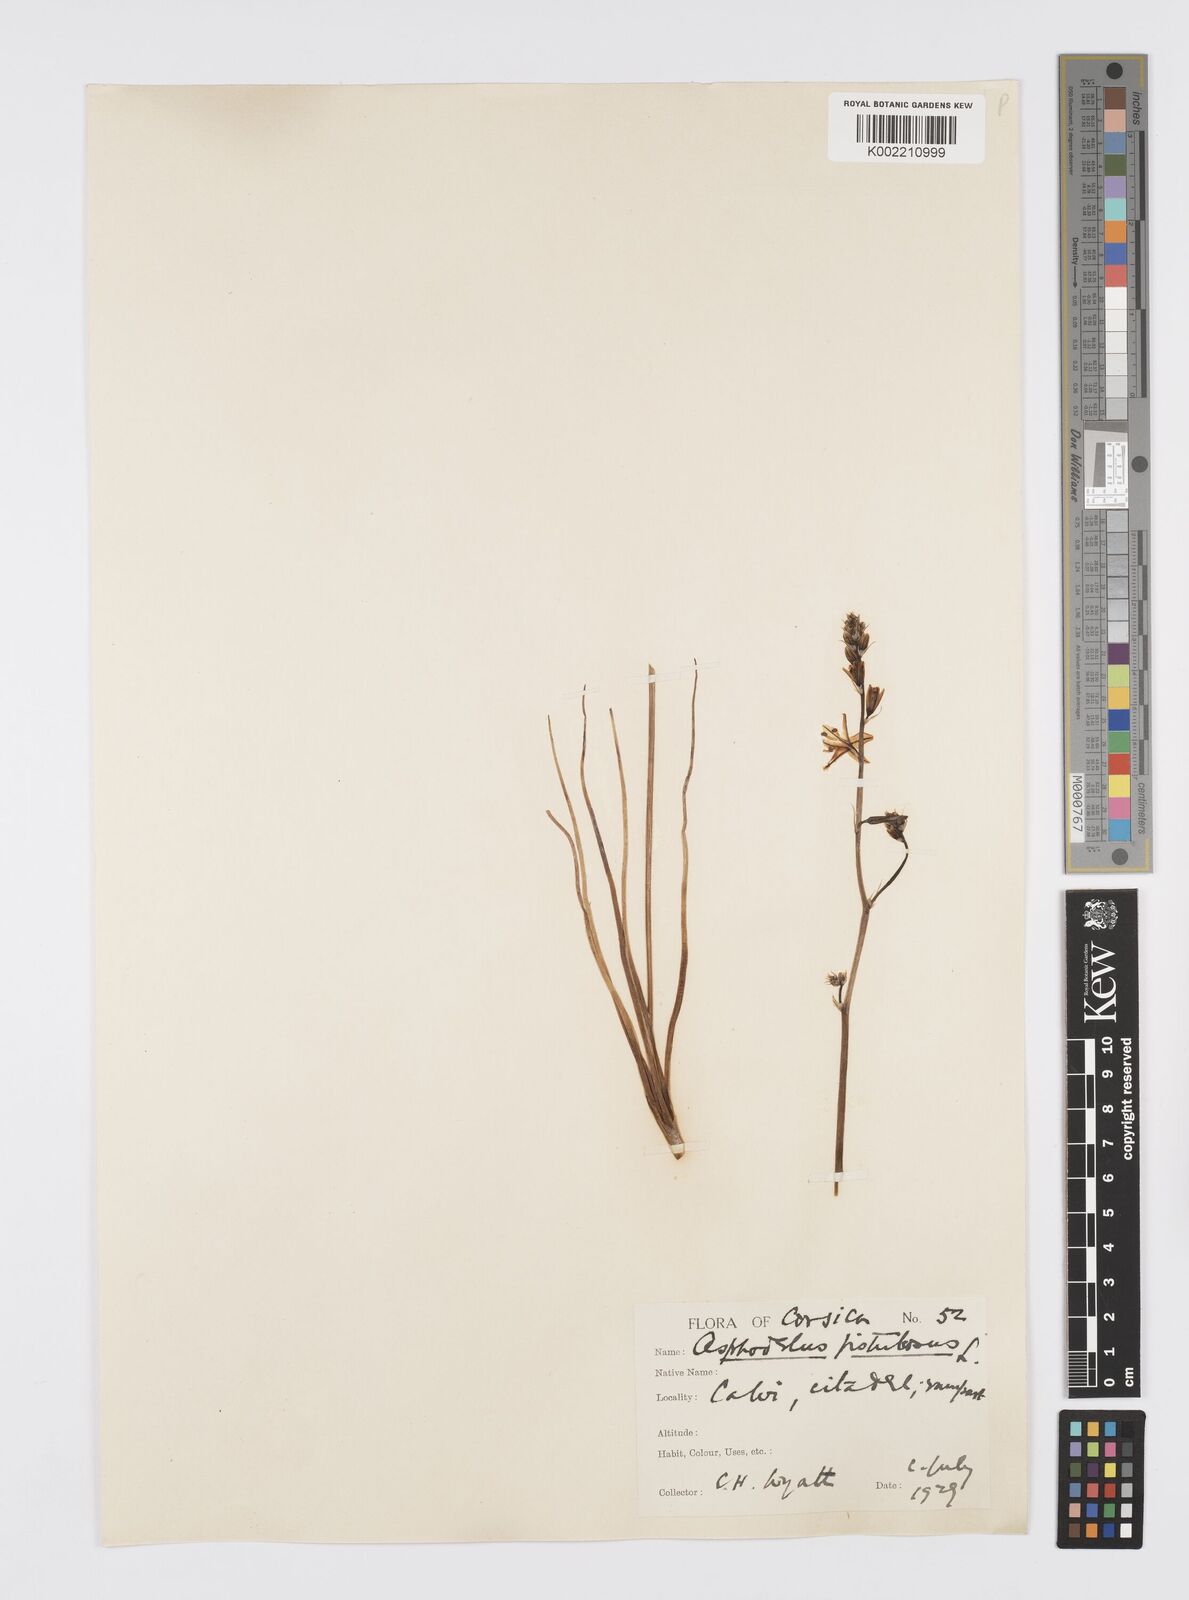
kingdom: Plantae
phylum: Tracheophyta
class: Liliopsida
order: Asparagales
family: Asphodelaceae
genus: Asphodelus
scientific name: Asphodelus fistulosus
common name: Onionweed
